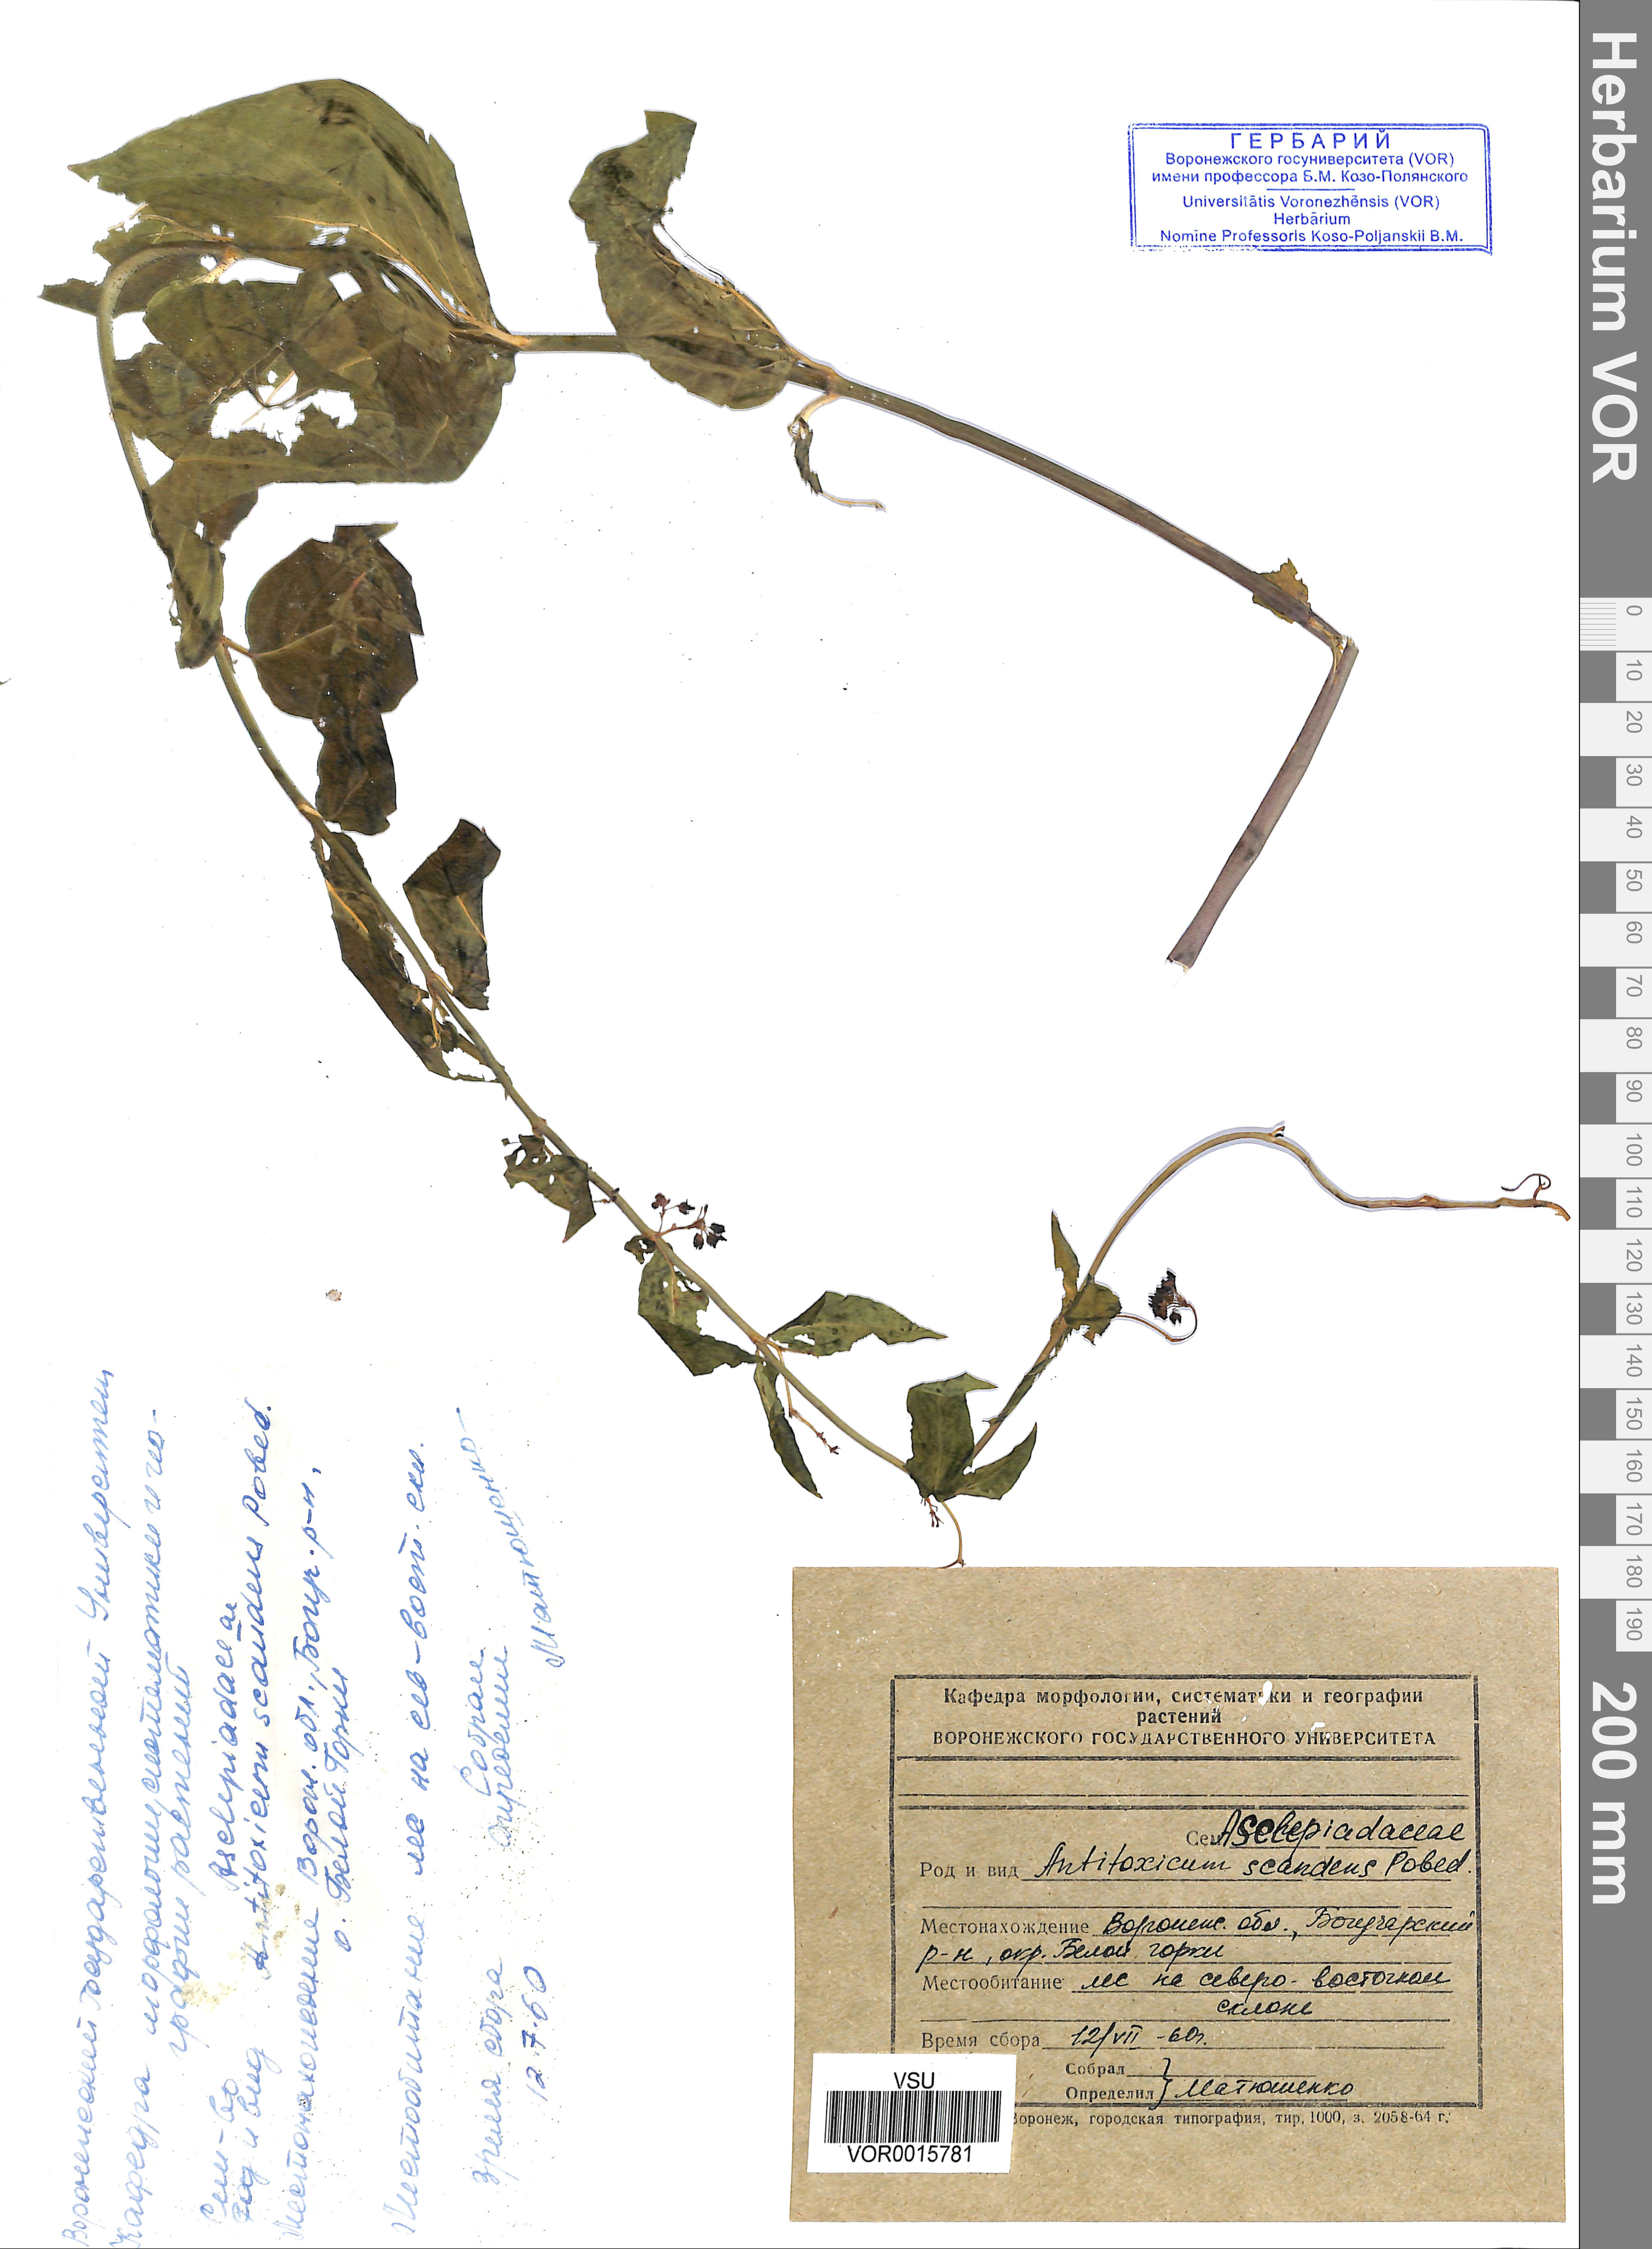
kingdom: Plantae
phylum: Tracheophyta
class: Magnoliopsida
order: Gentianales
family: Apocynaceae
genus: Vincetoxicum
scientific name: Vincetoxicum hirundinaria
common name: White swallowwort
